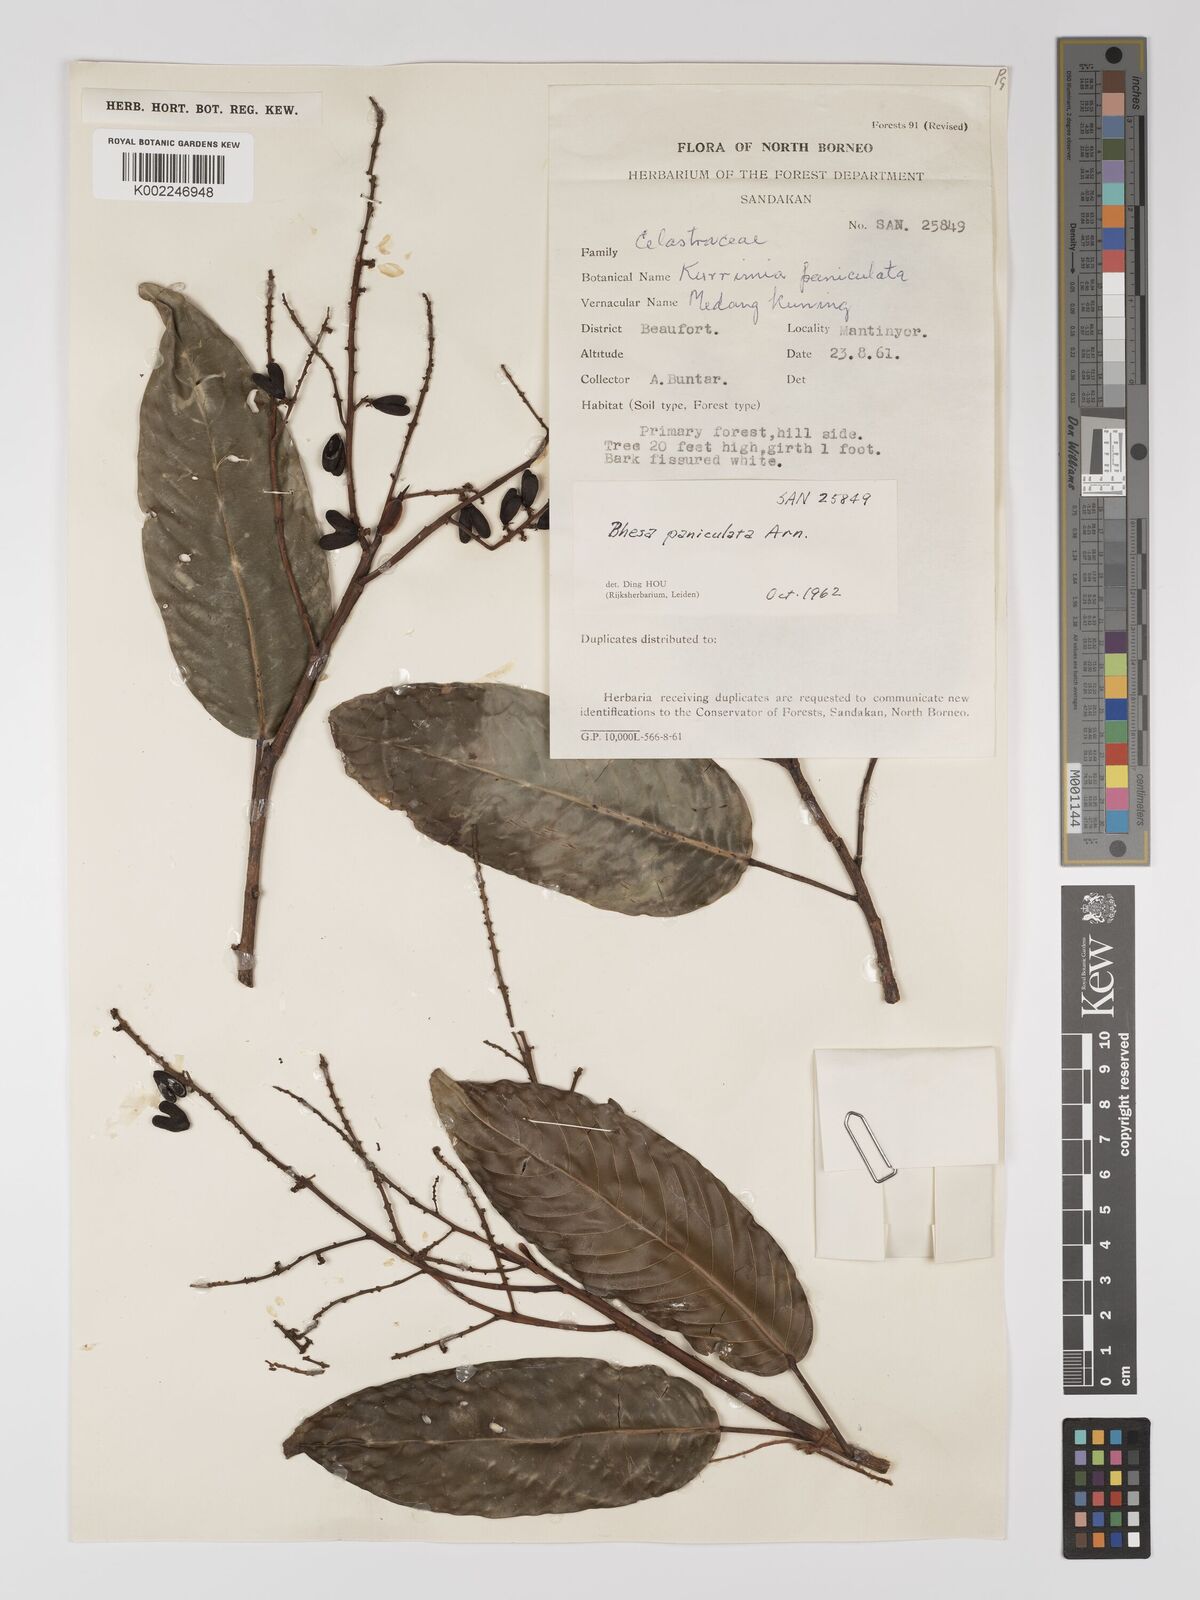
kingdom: Plantae
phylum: Tracheophyta
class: Magnoliopsida
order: Malpighiales
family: Centroplacaceae
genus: Bhesa
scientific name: Bhesa paniculata
